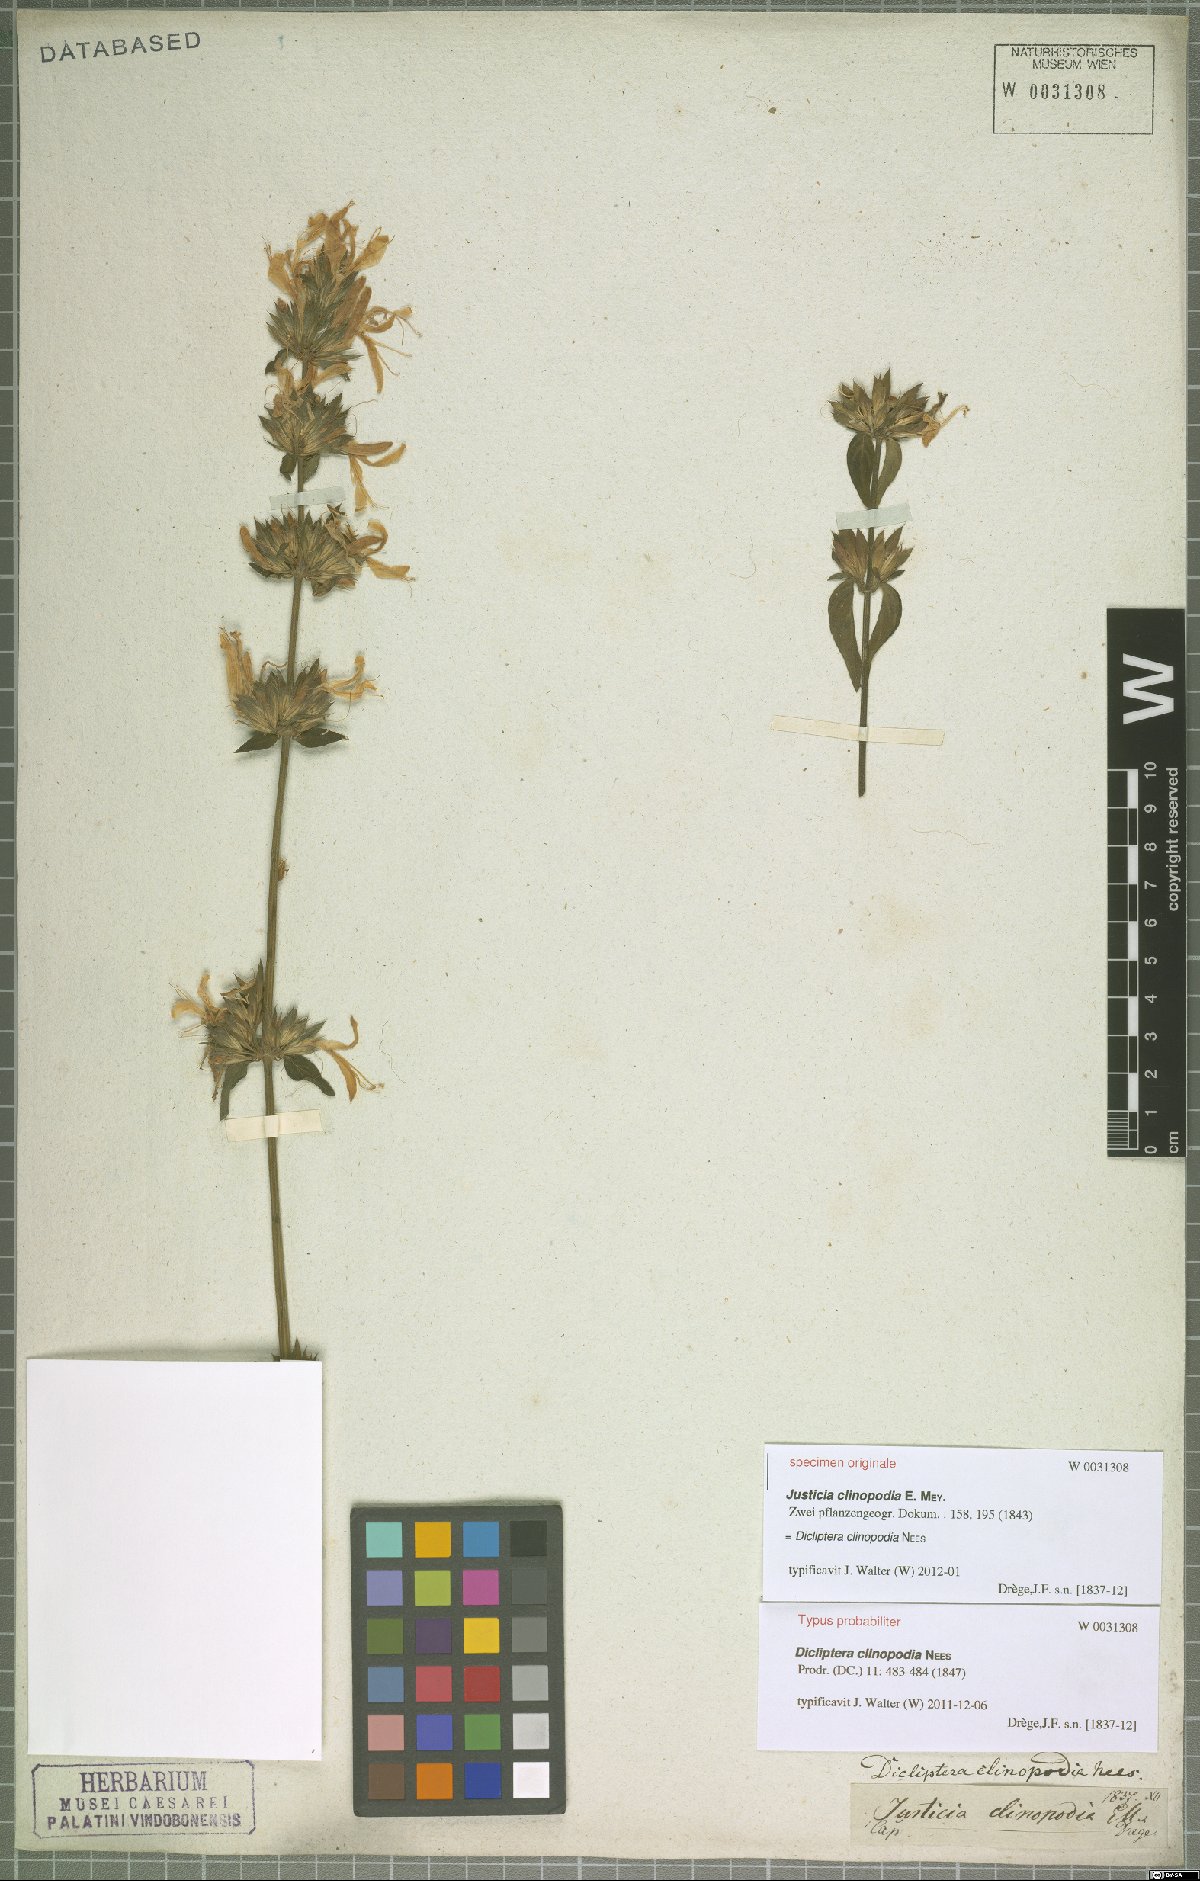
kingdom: Plantae
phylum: Tracheophyta
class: Magnoliopsida
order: Lamiales
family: Acanthaceae
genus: Dicliptera
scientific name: Dicliptera clinopodia
